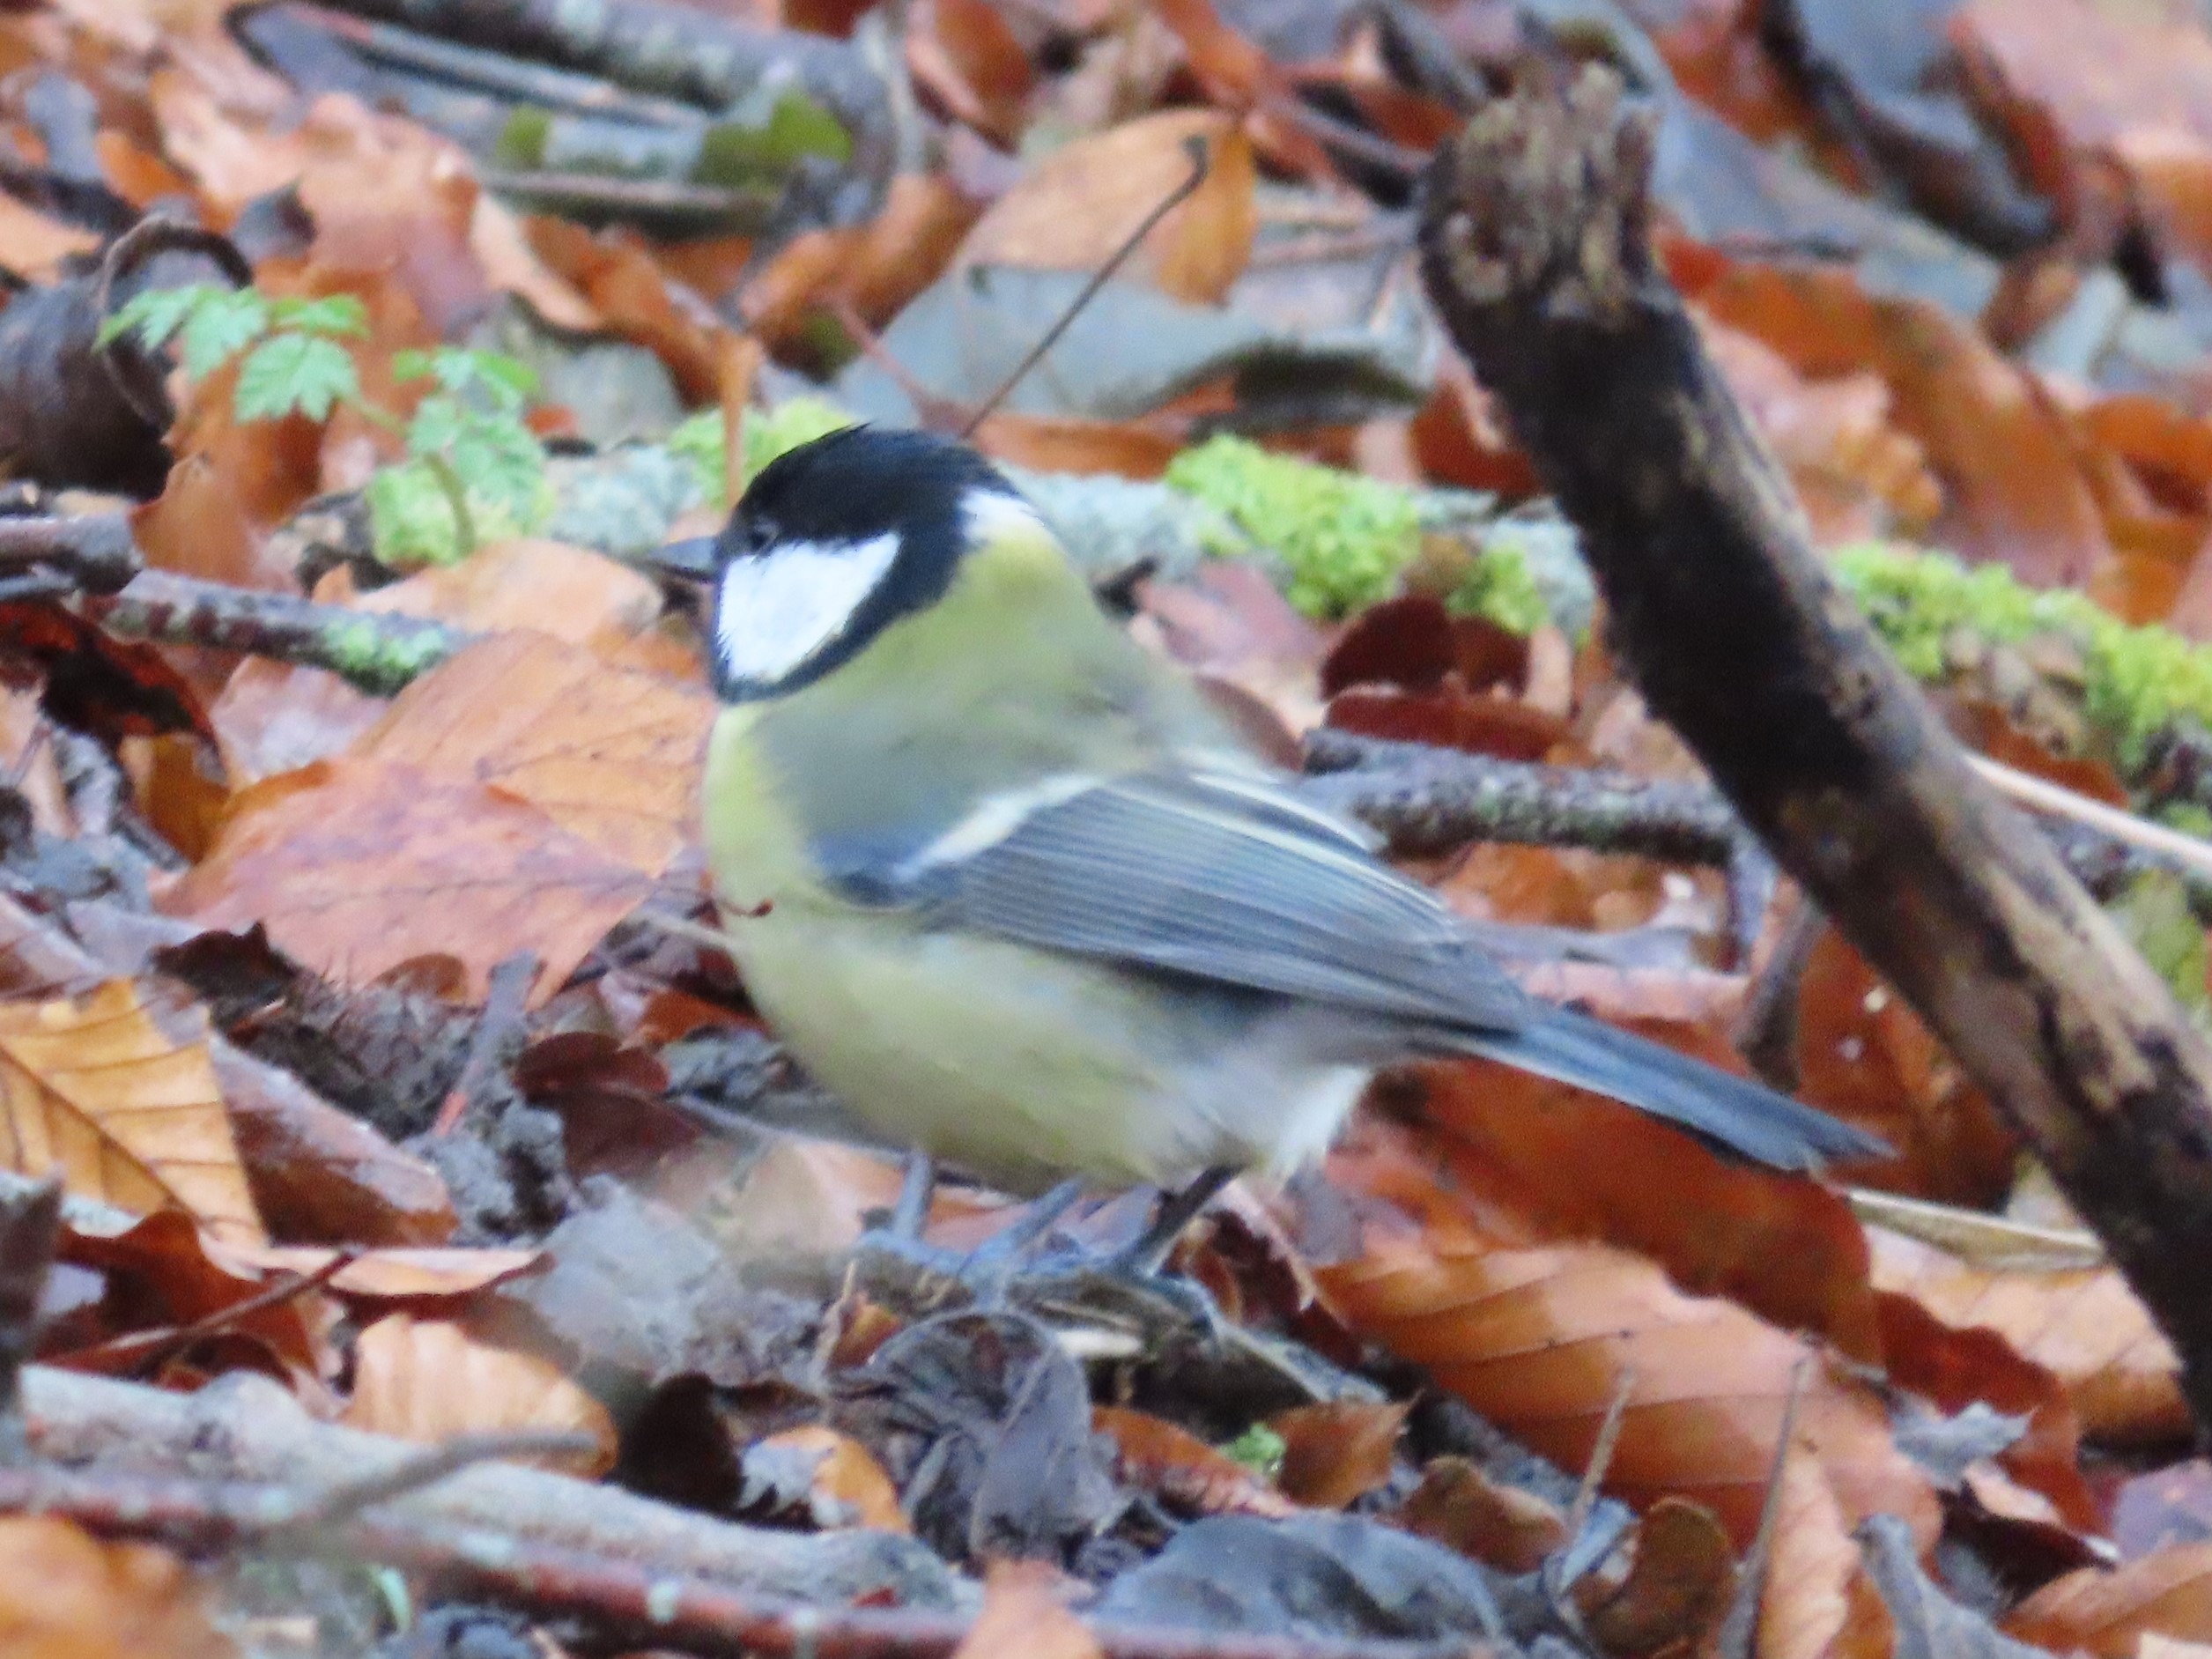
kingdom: Animalia
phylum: Chordata
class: Aves
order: Passeriformes
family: Paridae
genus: Parus
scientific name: Parus major
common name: Musvit
